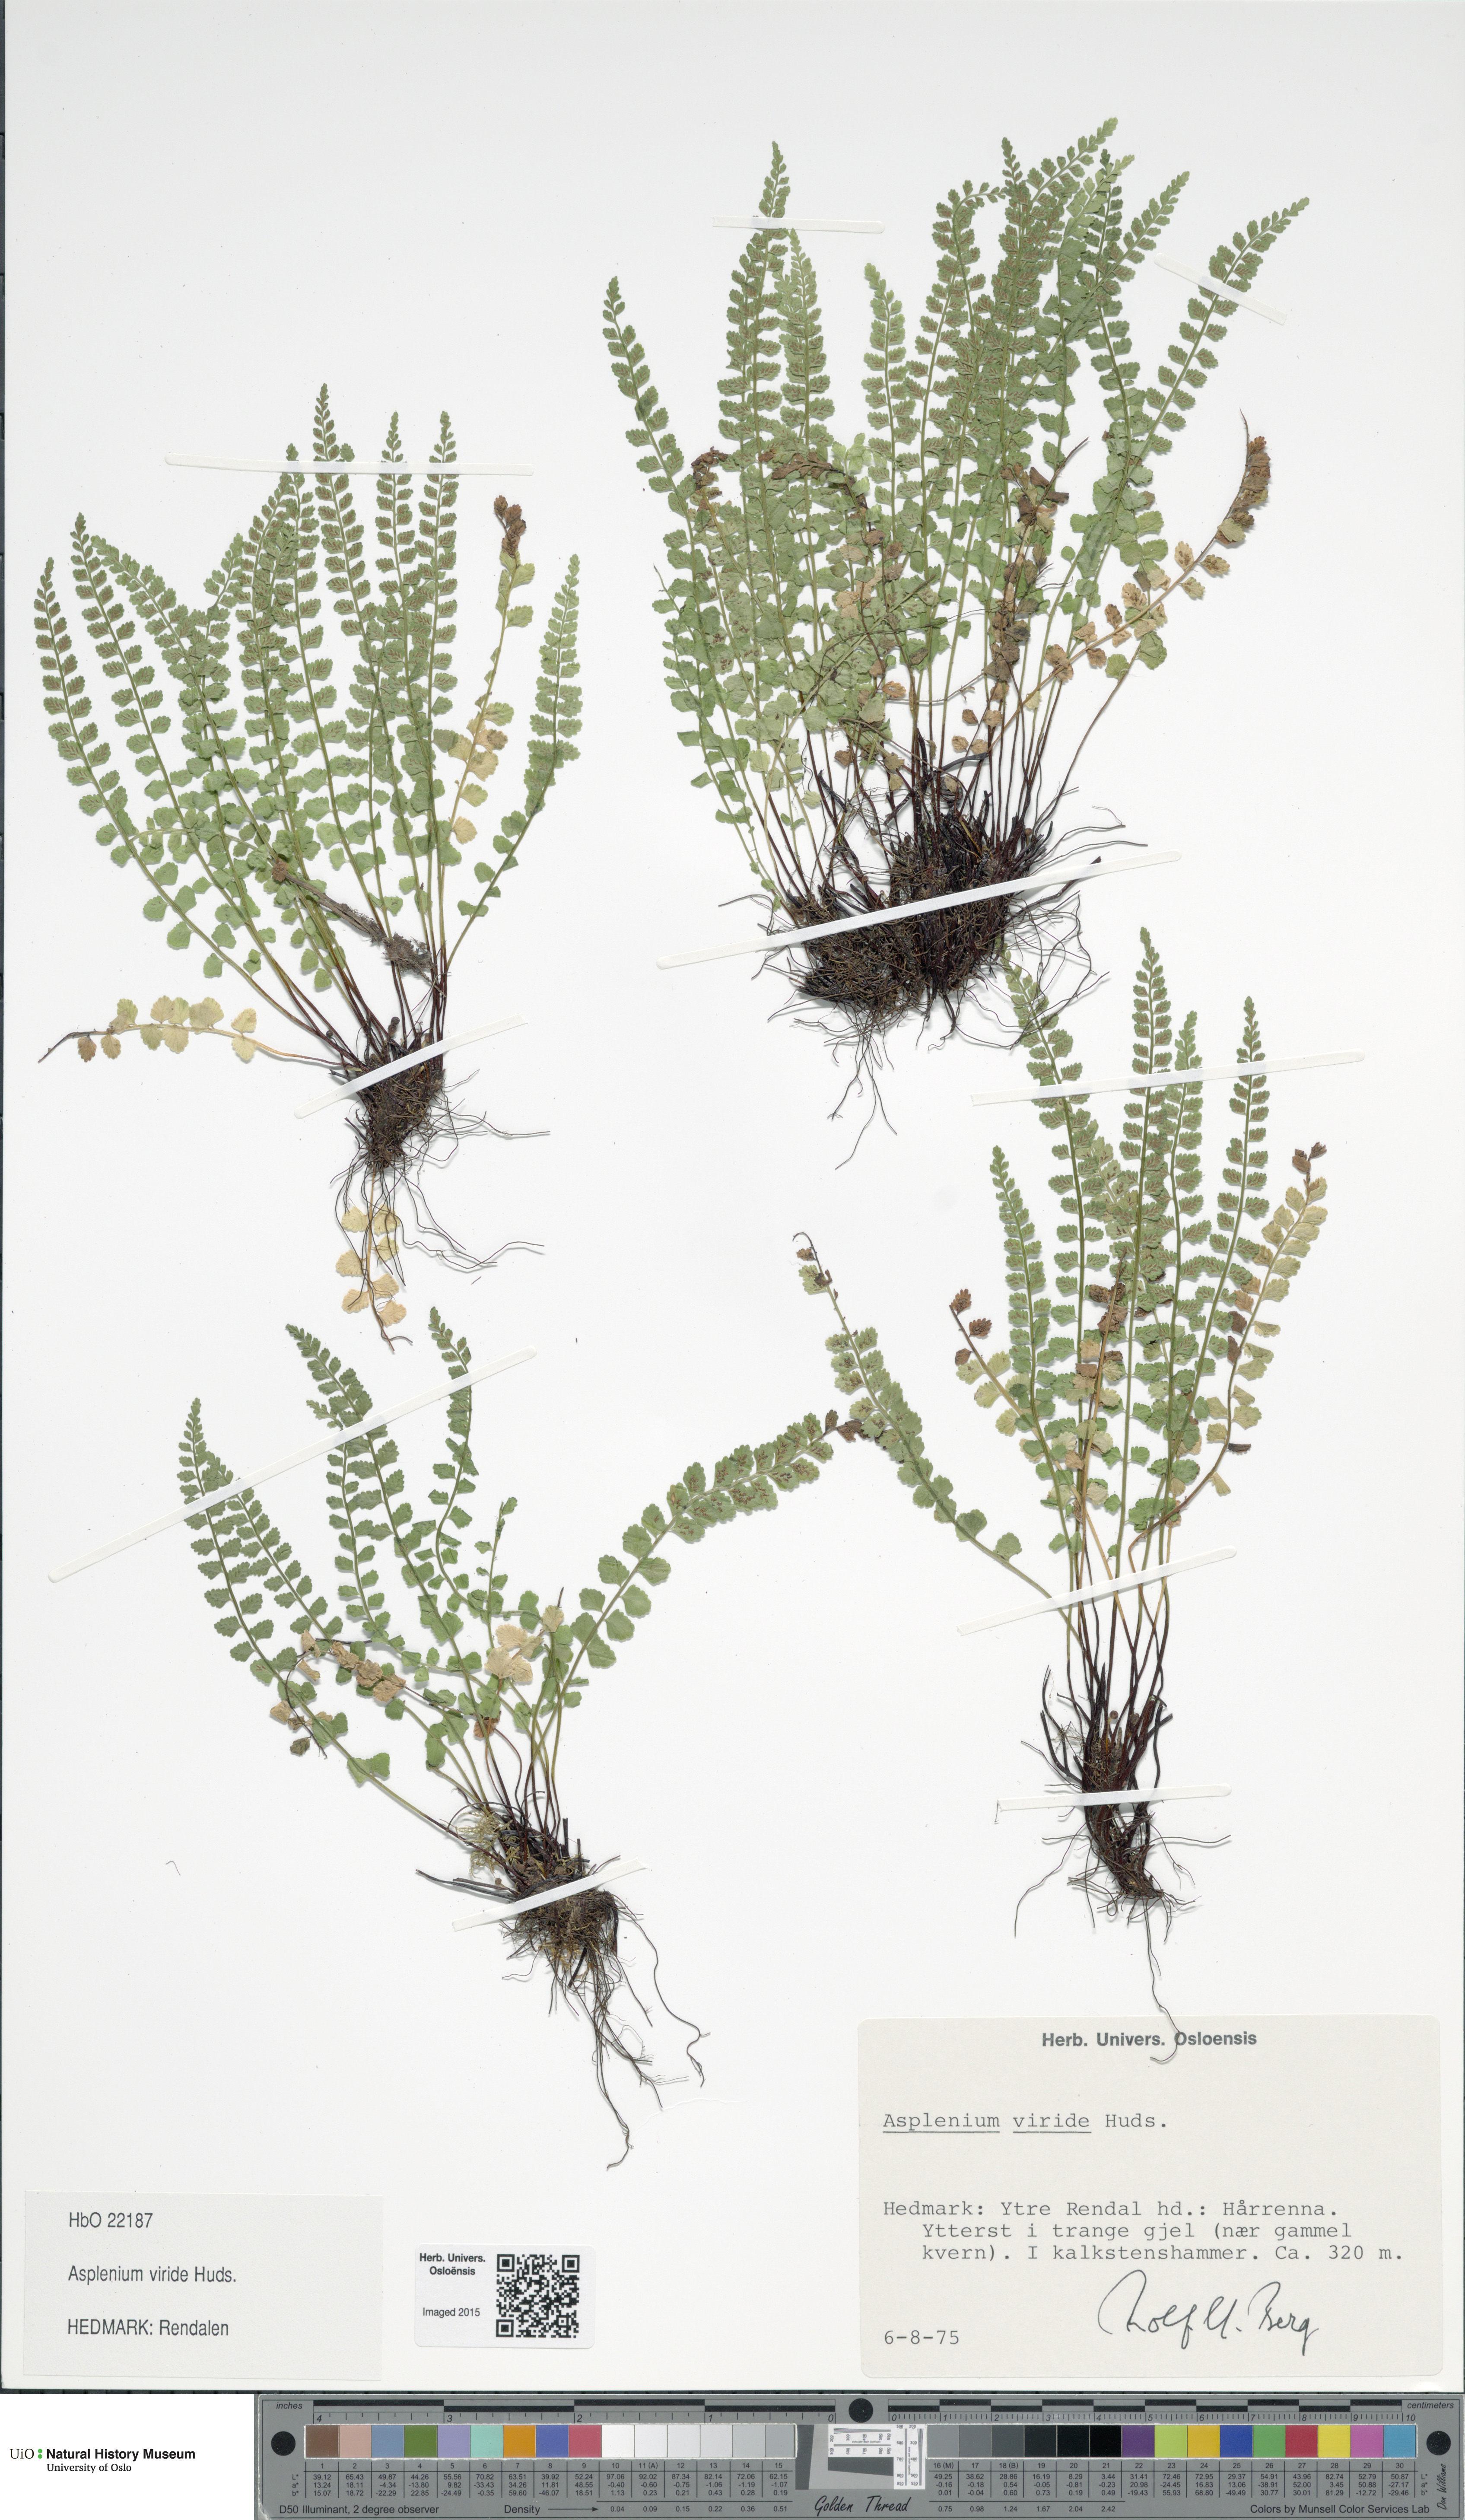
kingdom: Plantae
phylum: Tracheophyta
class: Polypodiopsida
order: Polypodiales
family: Aspleniaceae
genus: Asplenium
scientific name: Asplenium viride
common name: Green spleenwort
